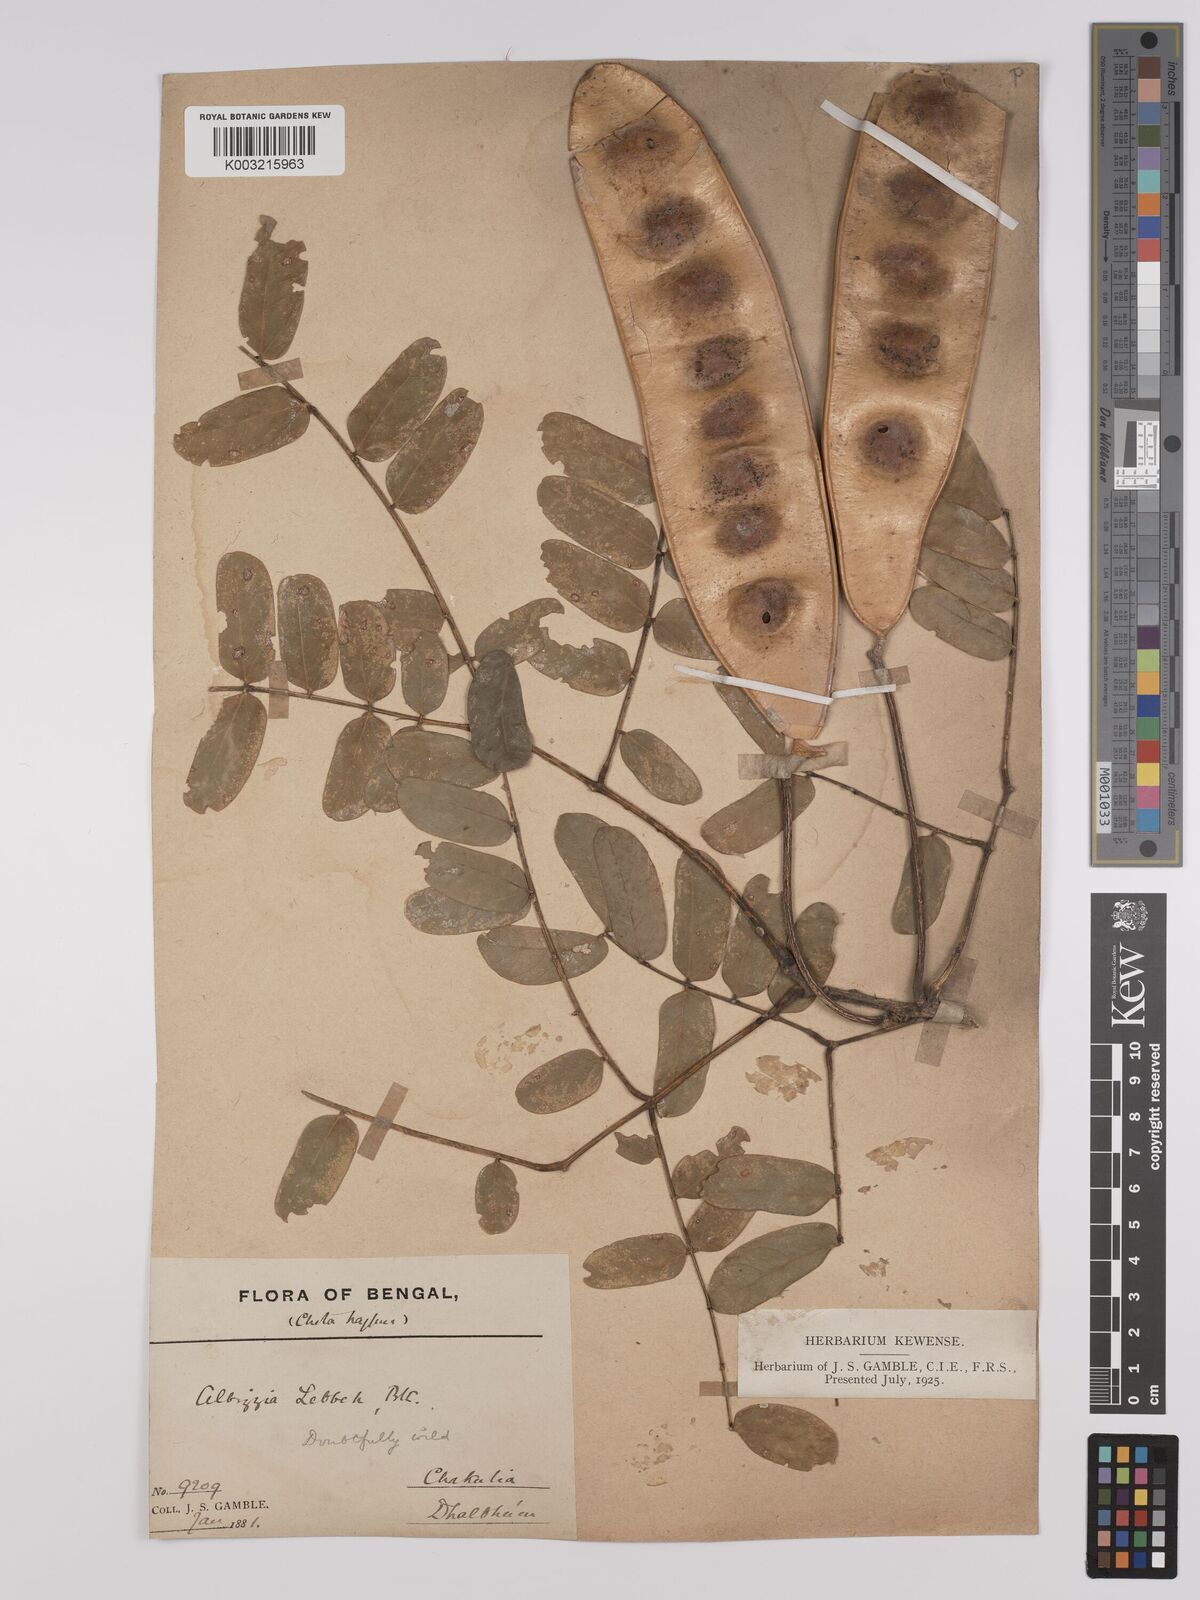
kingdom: Plantae
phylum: Tracheophyta
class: Magnoliopsida
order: Fabales
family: Fabaceae
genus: Albizia
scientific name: Albizia lebbeck
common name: Woman's tongue
